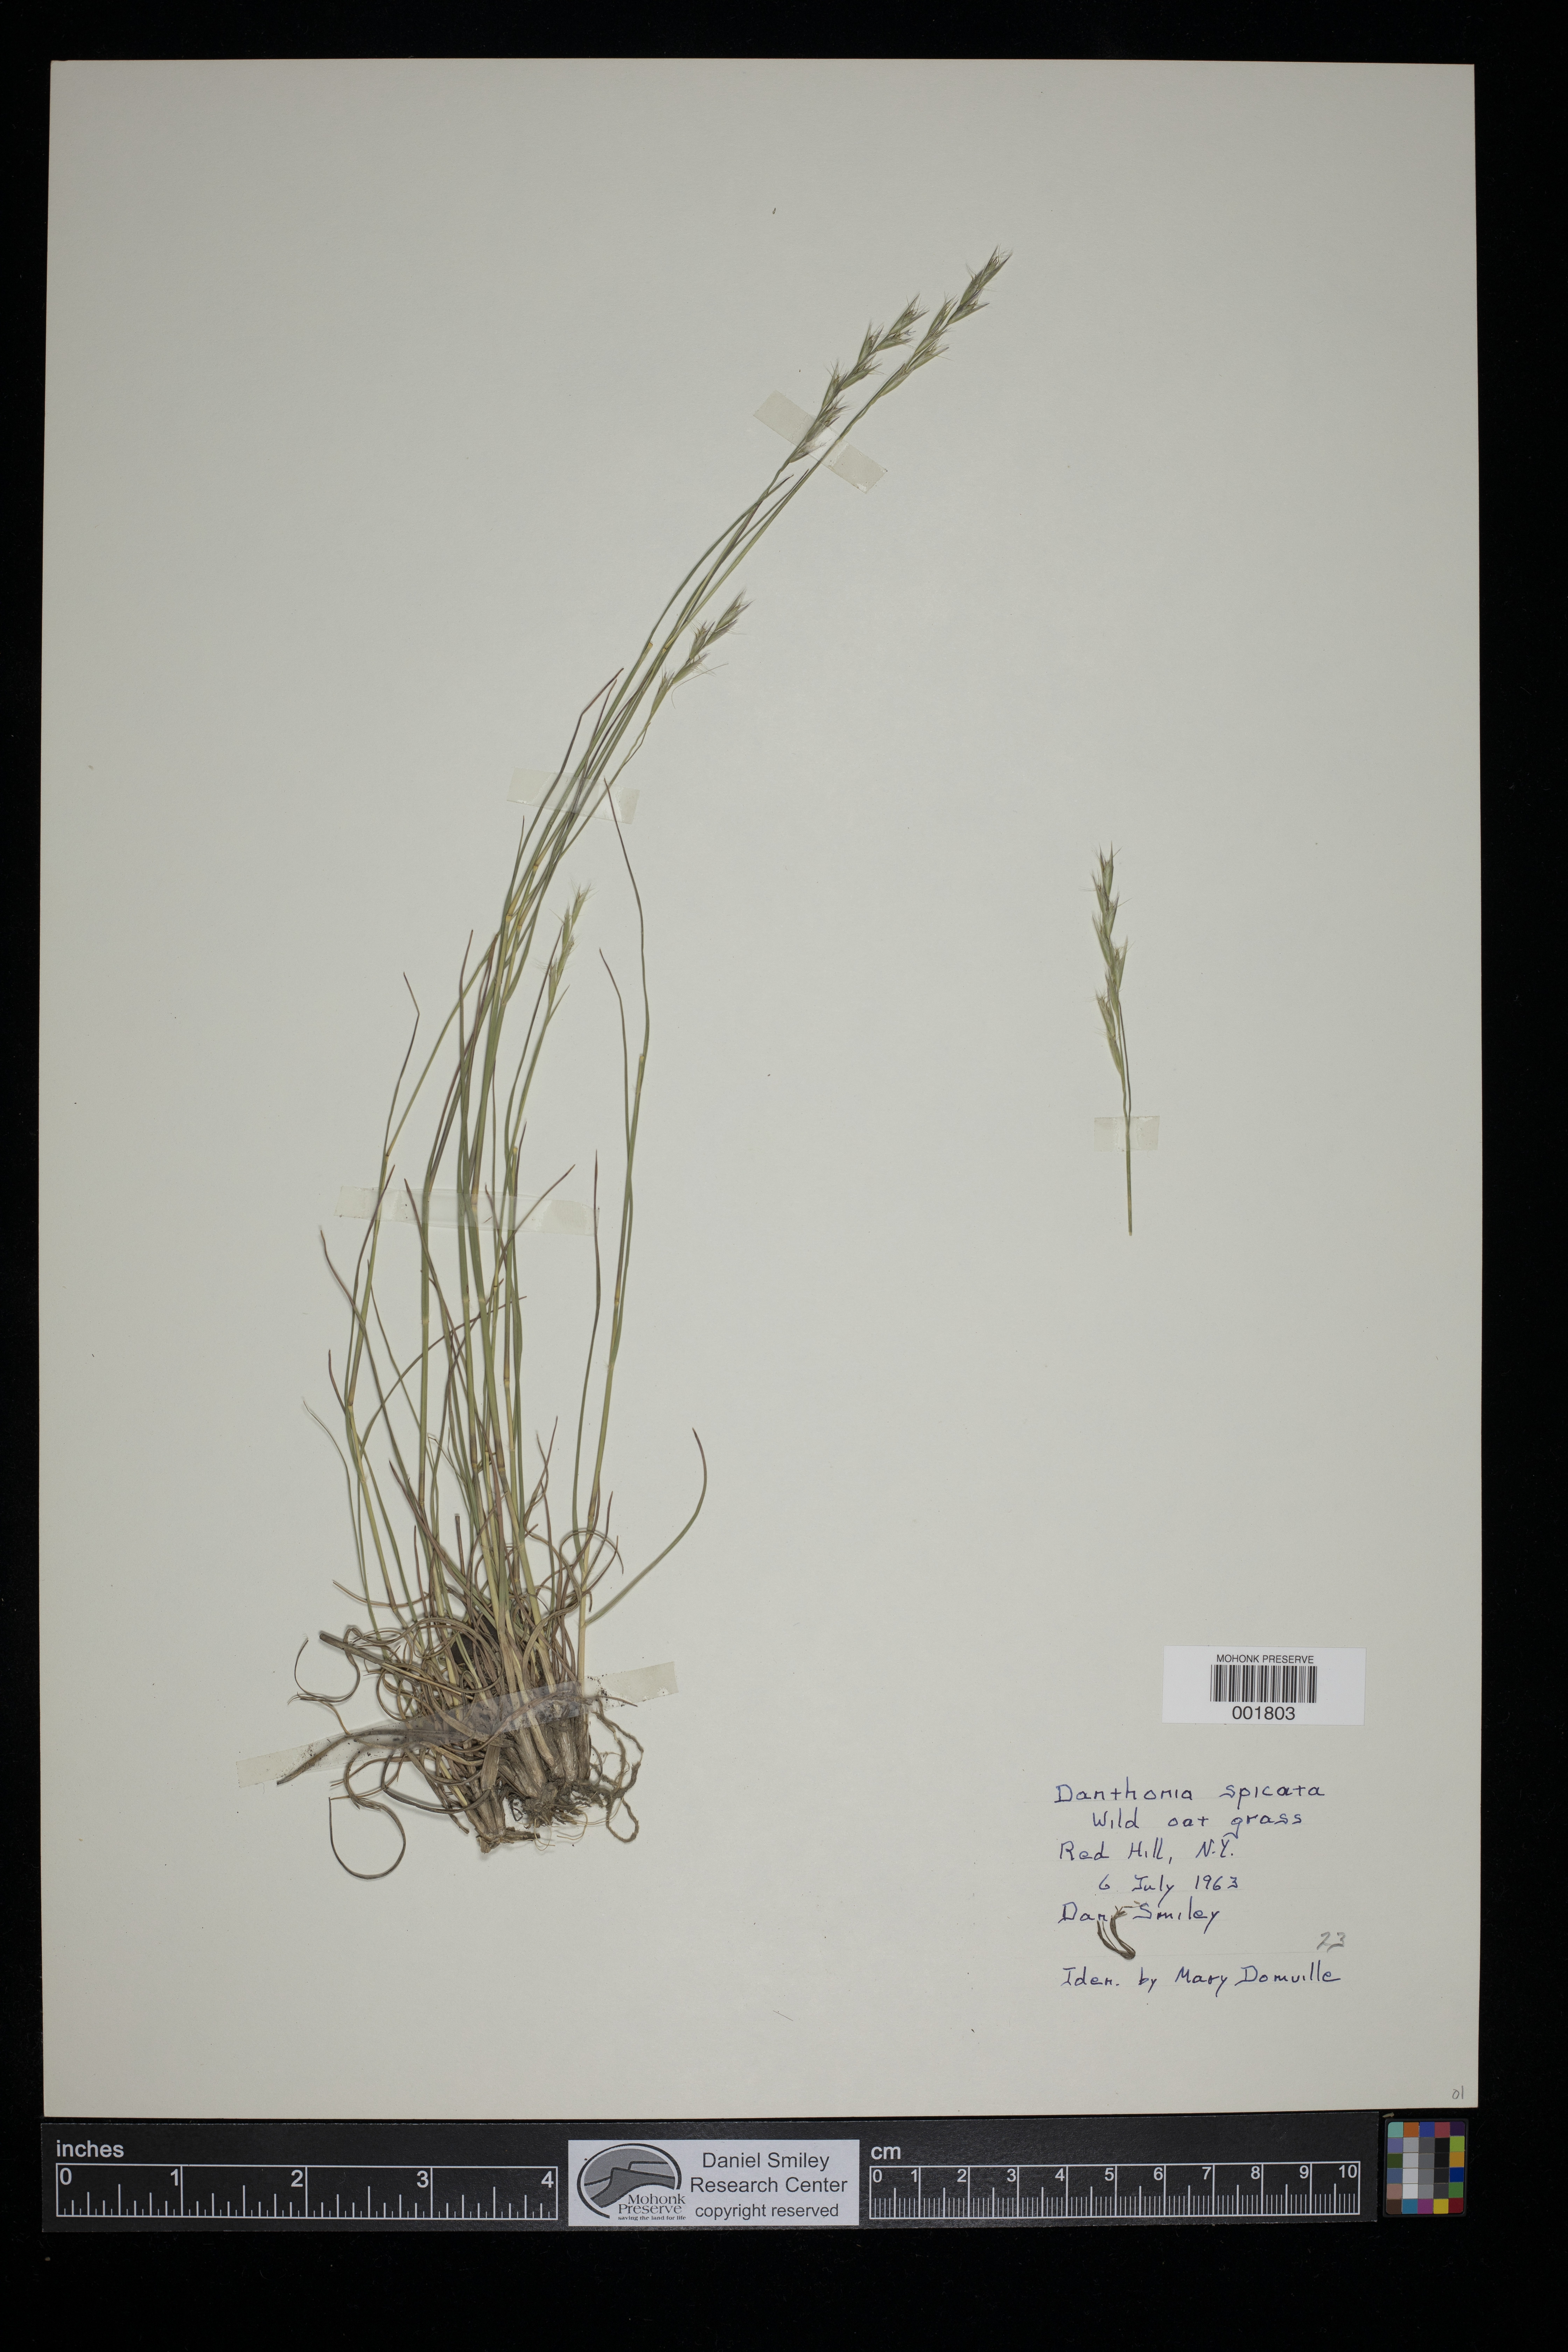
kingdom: Plantae
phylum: Tracheophyta
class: Liliopsida
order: Poales
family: Poaceae
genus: Danthonia
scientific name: Danthonia spicata
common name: Common wild oatgrass
